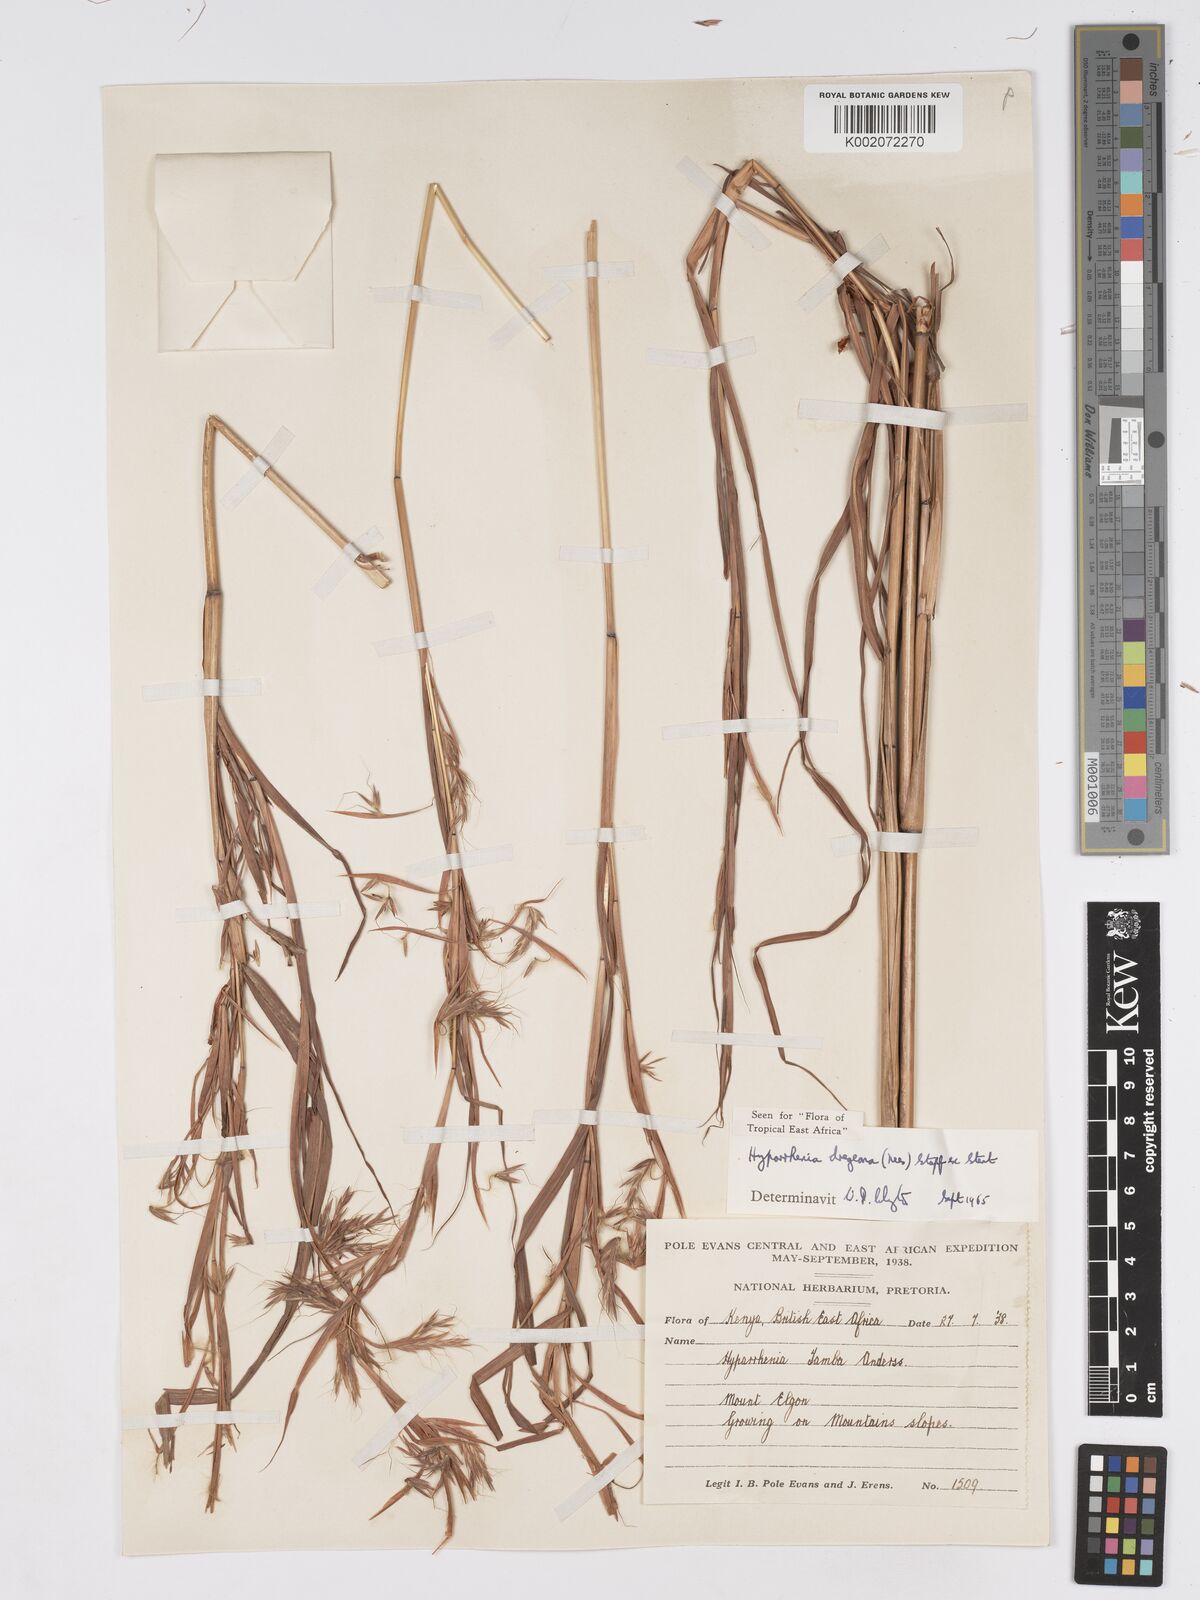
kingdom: Plantae
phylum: Tracheophyta
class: Liliopsida
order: Poales
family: Poaceae
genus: Hyparrhenia
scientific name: Hyparrhenia dregeana
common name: Silky thatching grass
